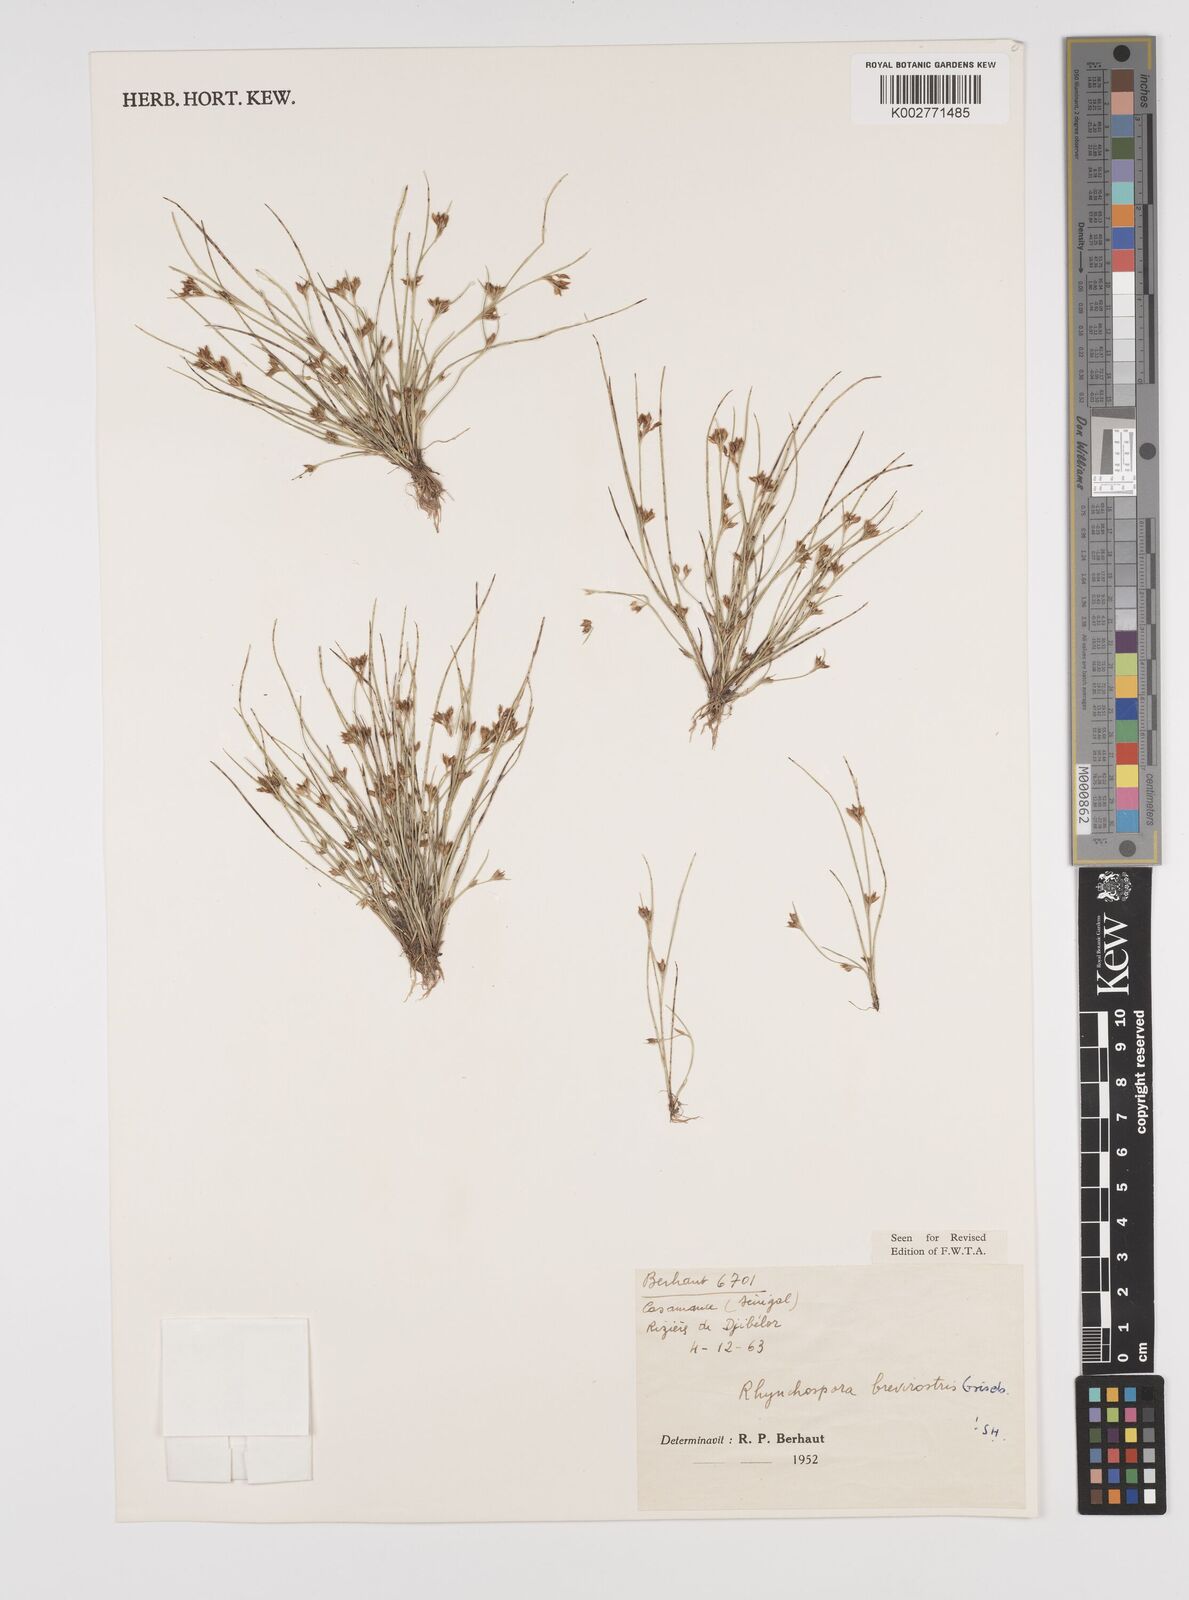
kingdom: Plantae
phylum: Tracheophyta
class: Liliopsida
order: Poales
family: Cyperaceae
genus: Rhynchospora
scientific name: Rhynchospora brevirostris
